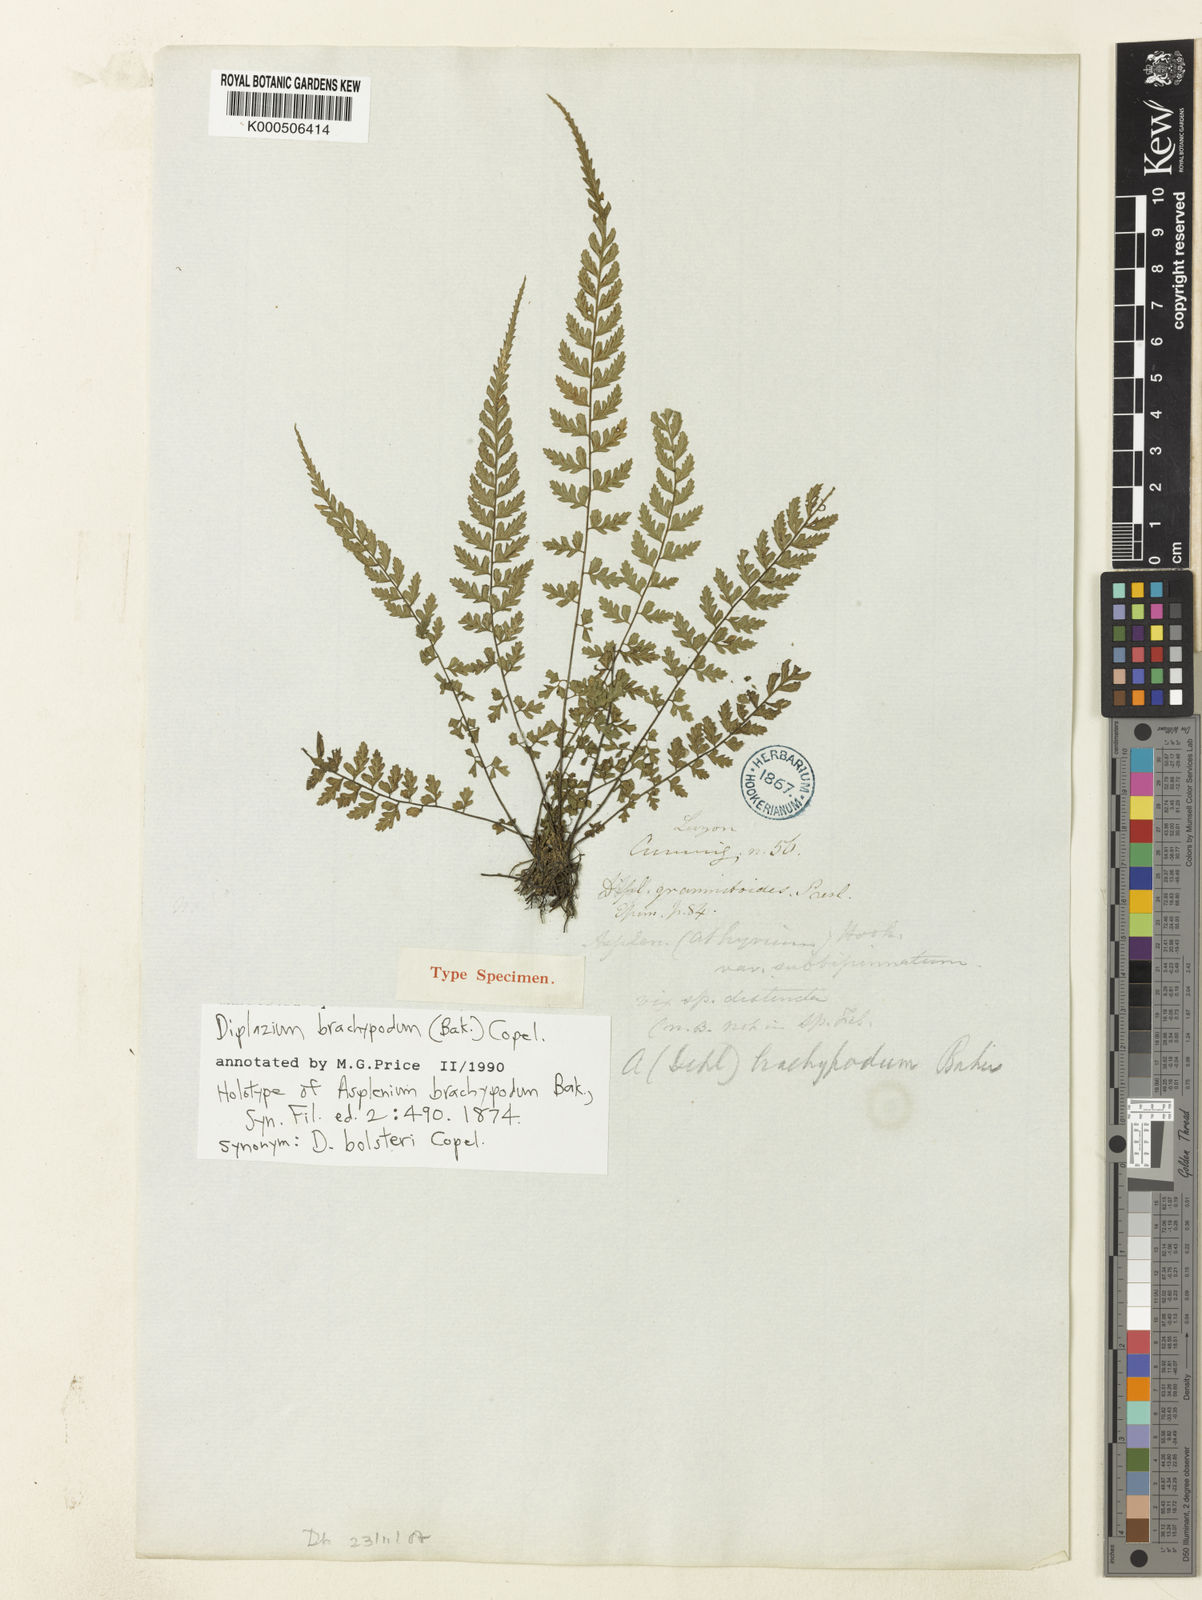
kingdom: Plantae
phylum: Tracheophyta
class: Polypodiopsida
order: Polypodiales
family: Athyriaceae
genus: Deparia
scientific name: Deparia confluens
